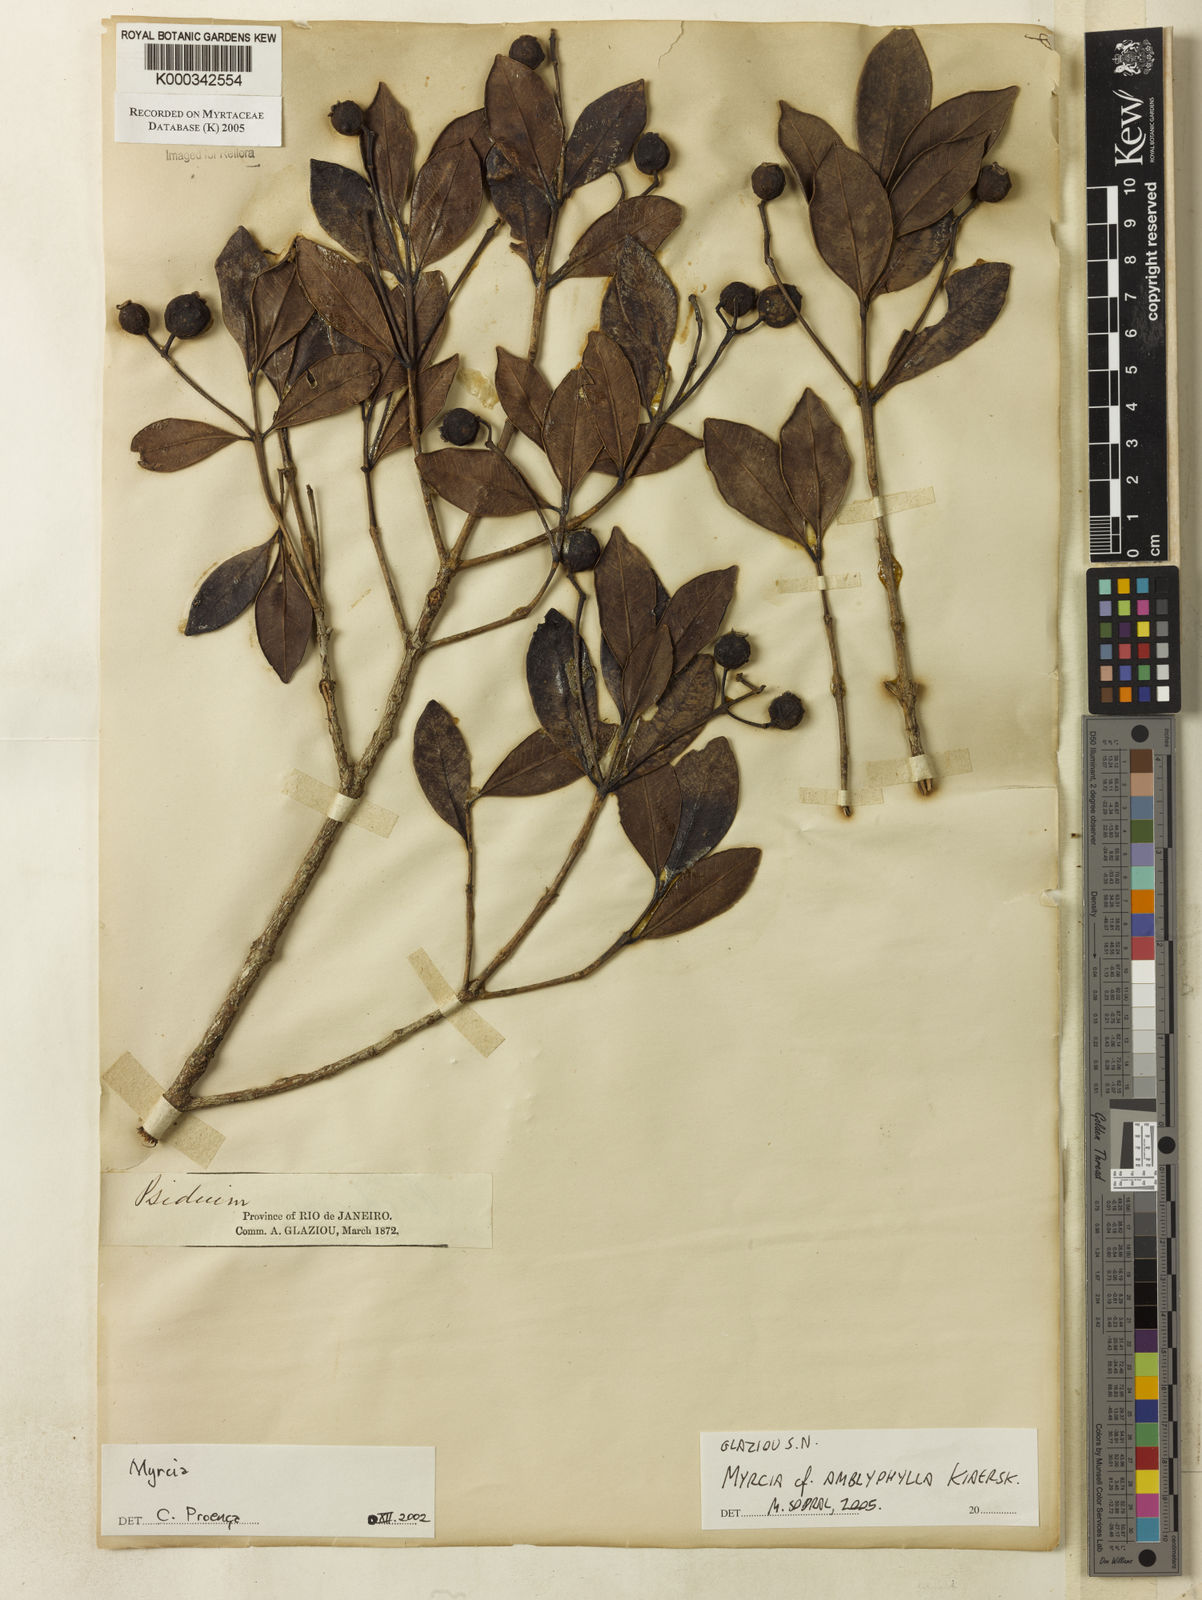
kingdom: Plantae
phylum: Tracheophyta
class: Magnoliopsida
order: Myrtales
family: Myrtaceae
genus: Myrcia
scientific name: Myrcia
